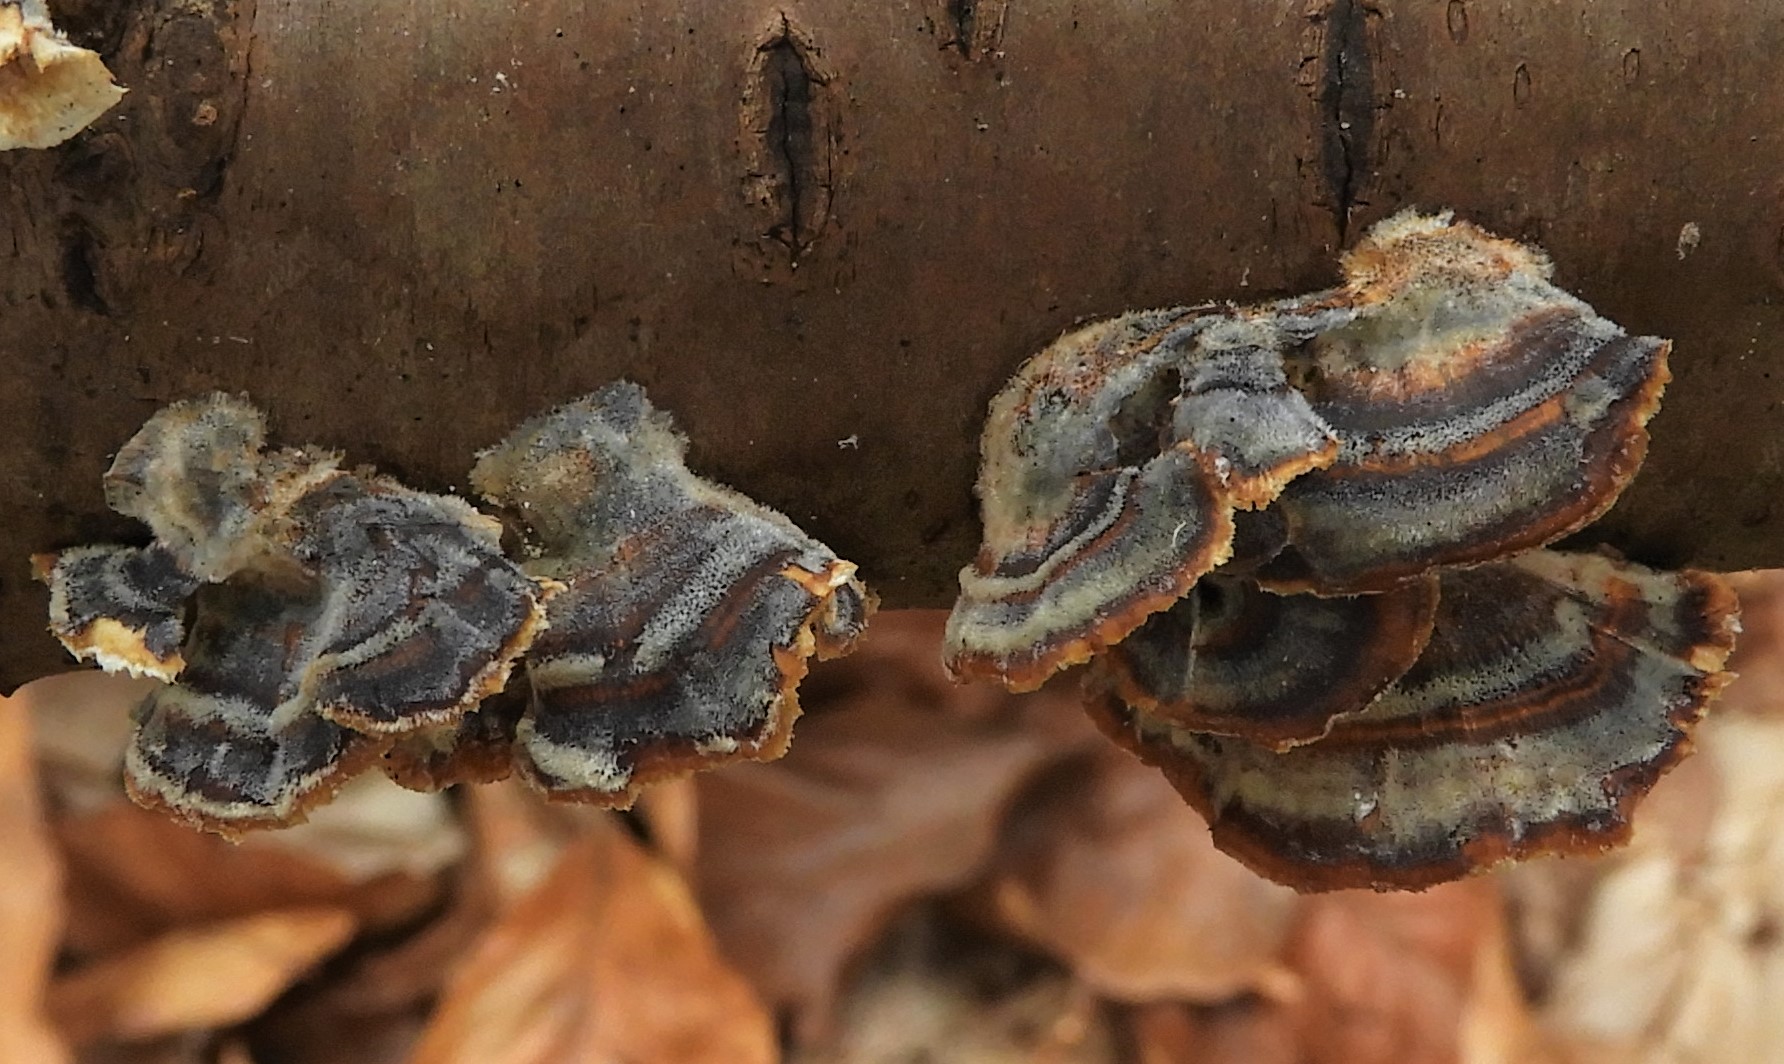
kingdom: Fungi
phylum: Basidiomycota
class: Agaricomycetes
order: Polyporales
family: Polyporaceae
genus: Trametes
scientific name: Trametes versicolor
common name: broget læderporesvamp
